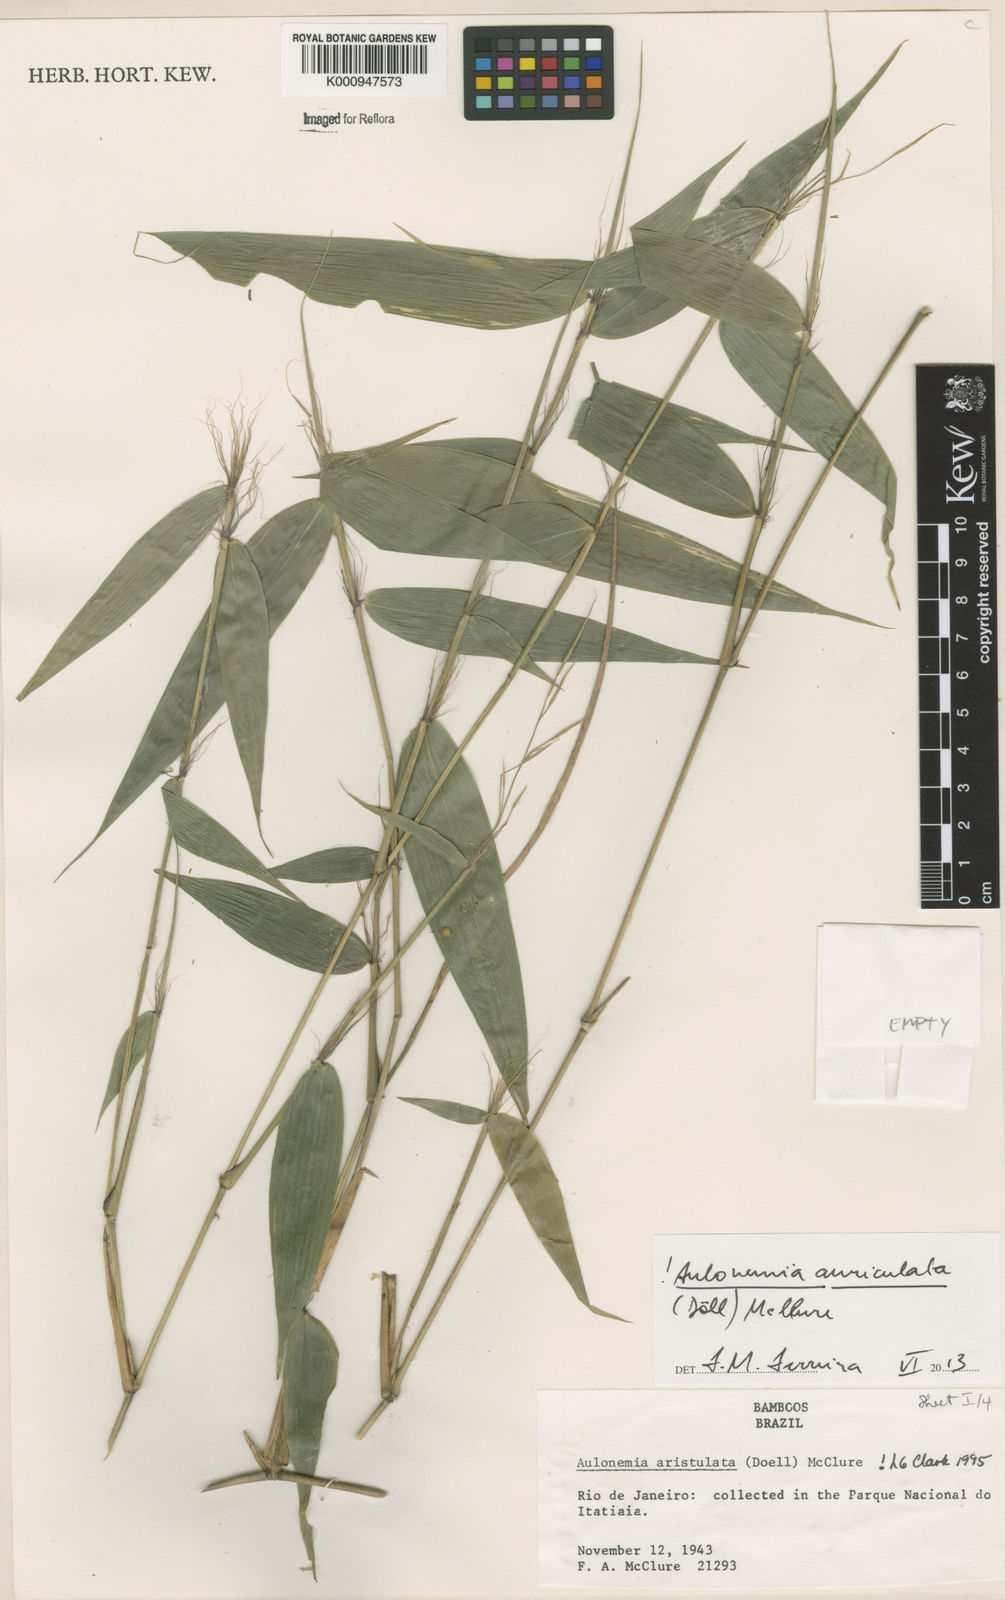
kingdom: Plantae
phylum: Tracheophyta
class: Liliopsida
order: Poales
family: Poaceae
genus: Aulonemia
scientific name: Aulonemia
